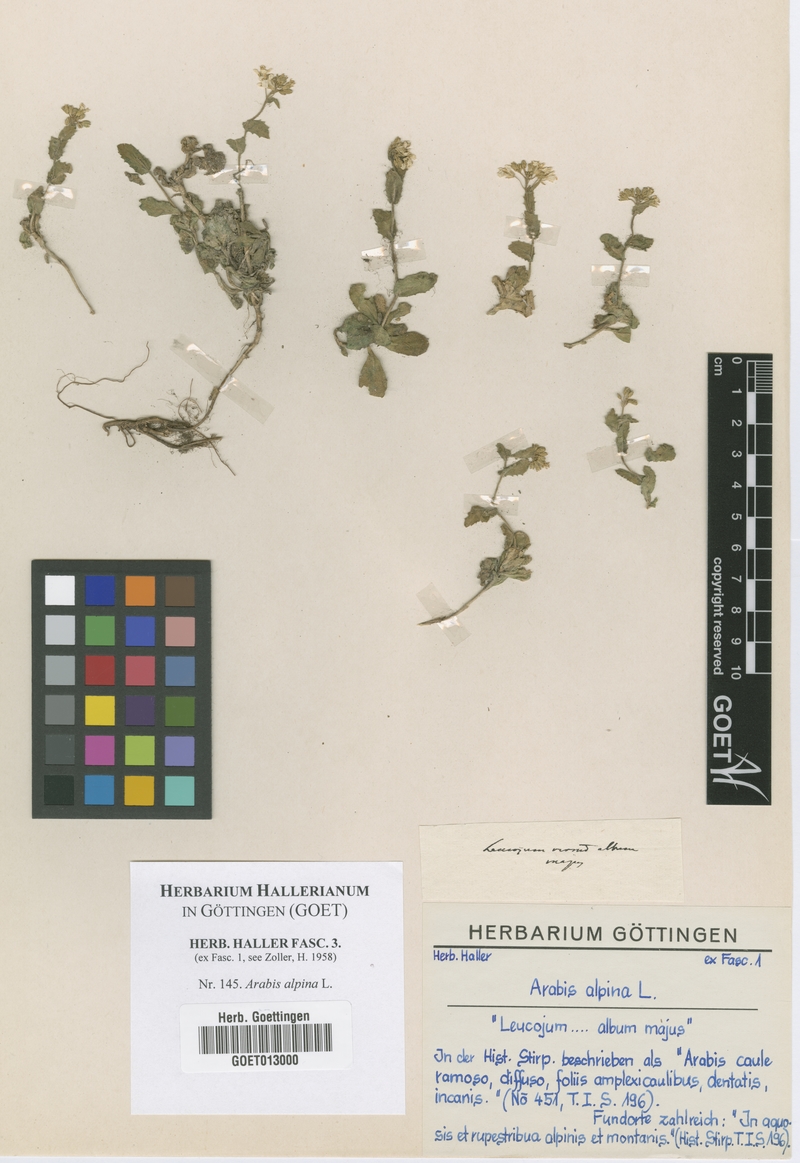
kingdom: Plantae
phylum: Tracheophyta
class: Magnoliopsida
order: Brassicales
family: Brassicaceae
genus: Arabis
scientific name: Arabis alpina
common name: Alpine rock-cress
